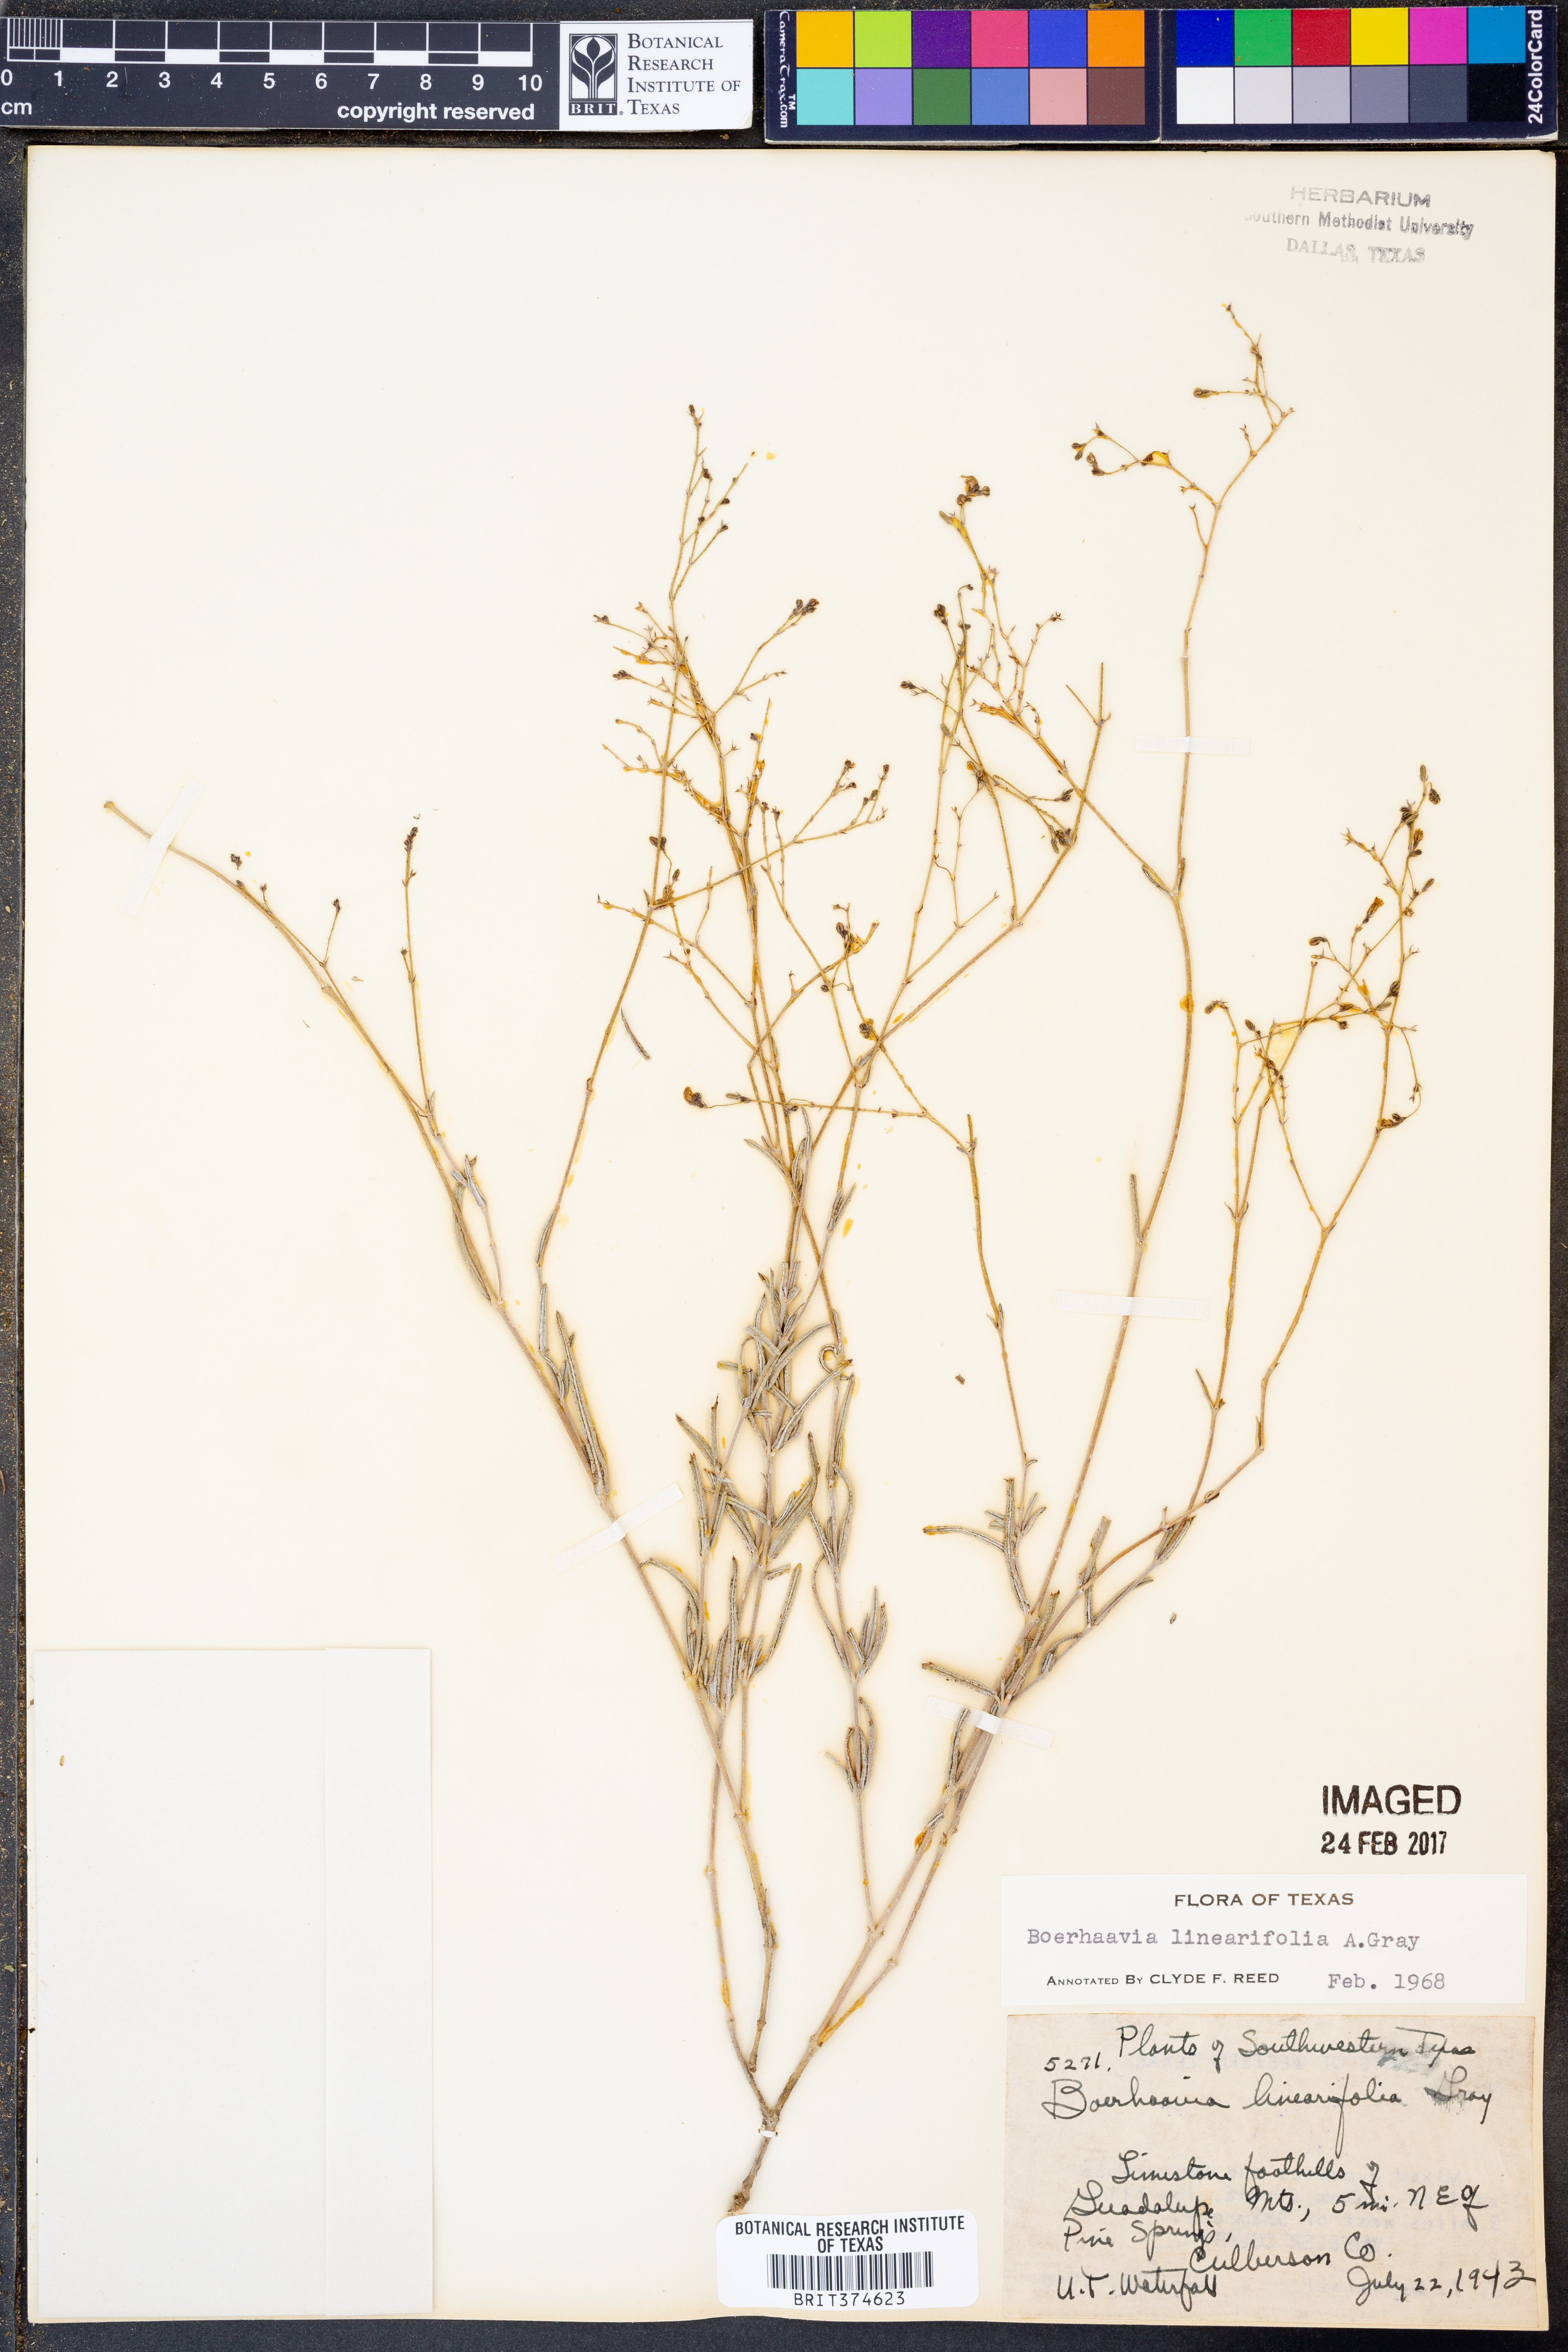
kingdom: Plantae
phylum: Tracheophyta
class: Magnoliopsida
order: Caryophyllales
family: Nyctaginaceae
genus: Boerhavia
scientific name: Boerhavia linearifolia
